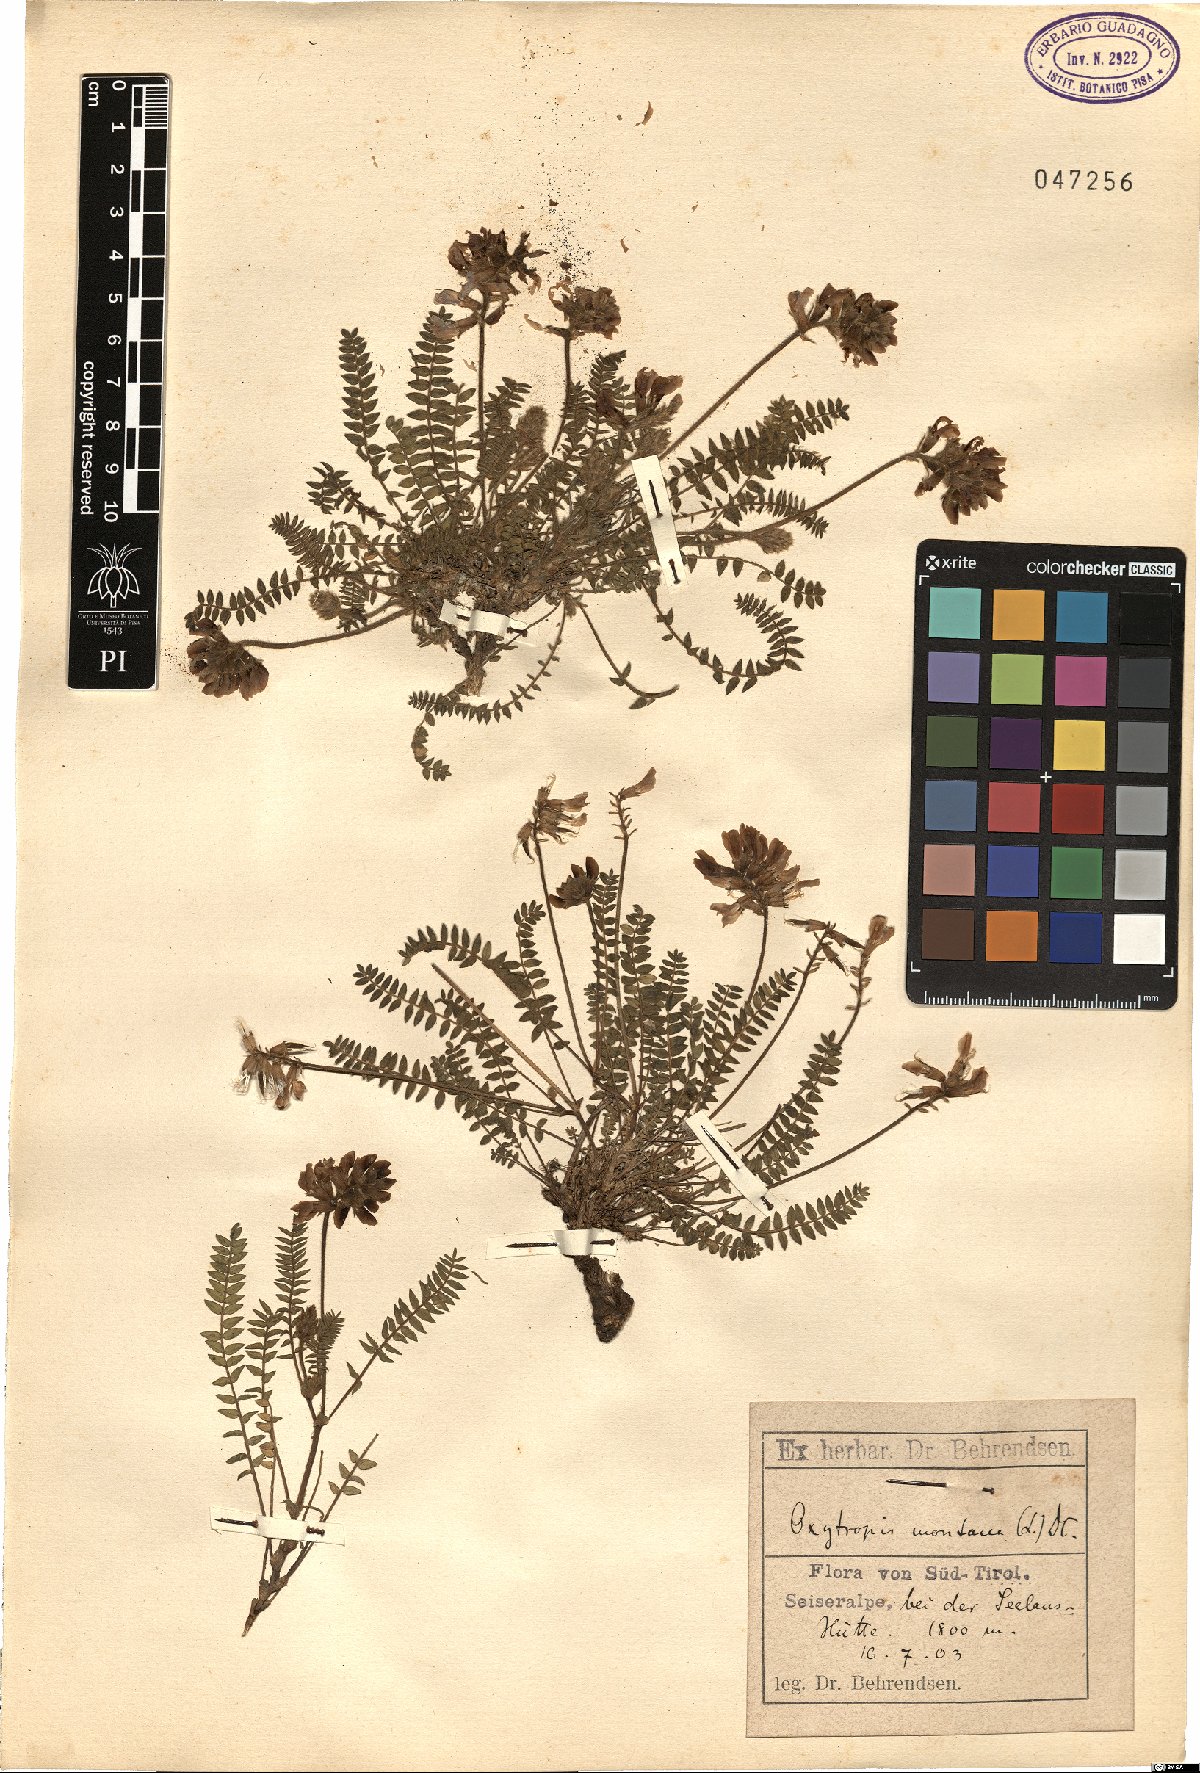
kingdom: Plantae
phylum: Tracheophyta
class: Magnoliopsida
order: Fabales
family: Fabaceae
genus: Oxytropis
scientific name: Oxytropis montana
